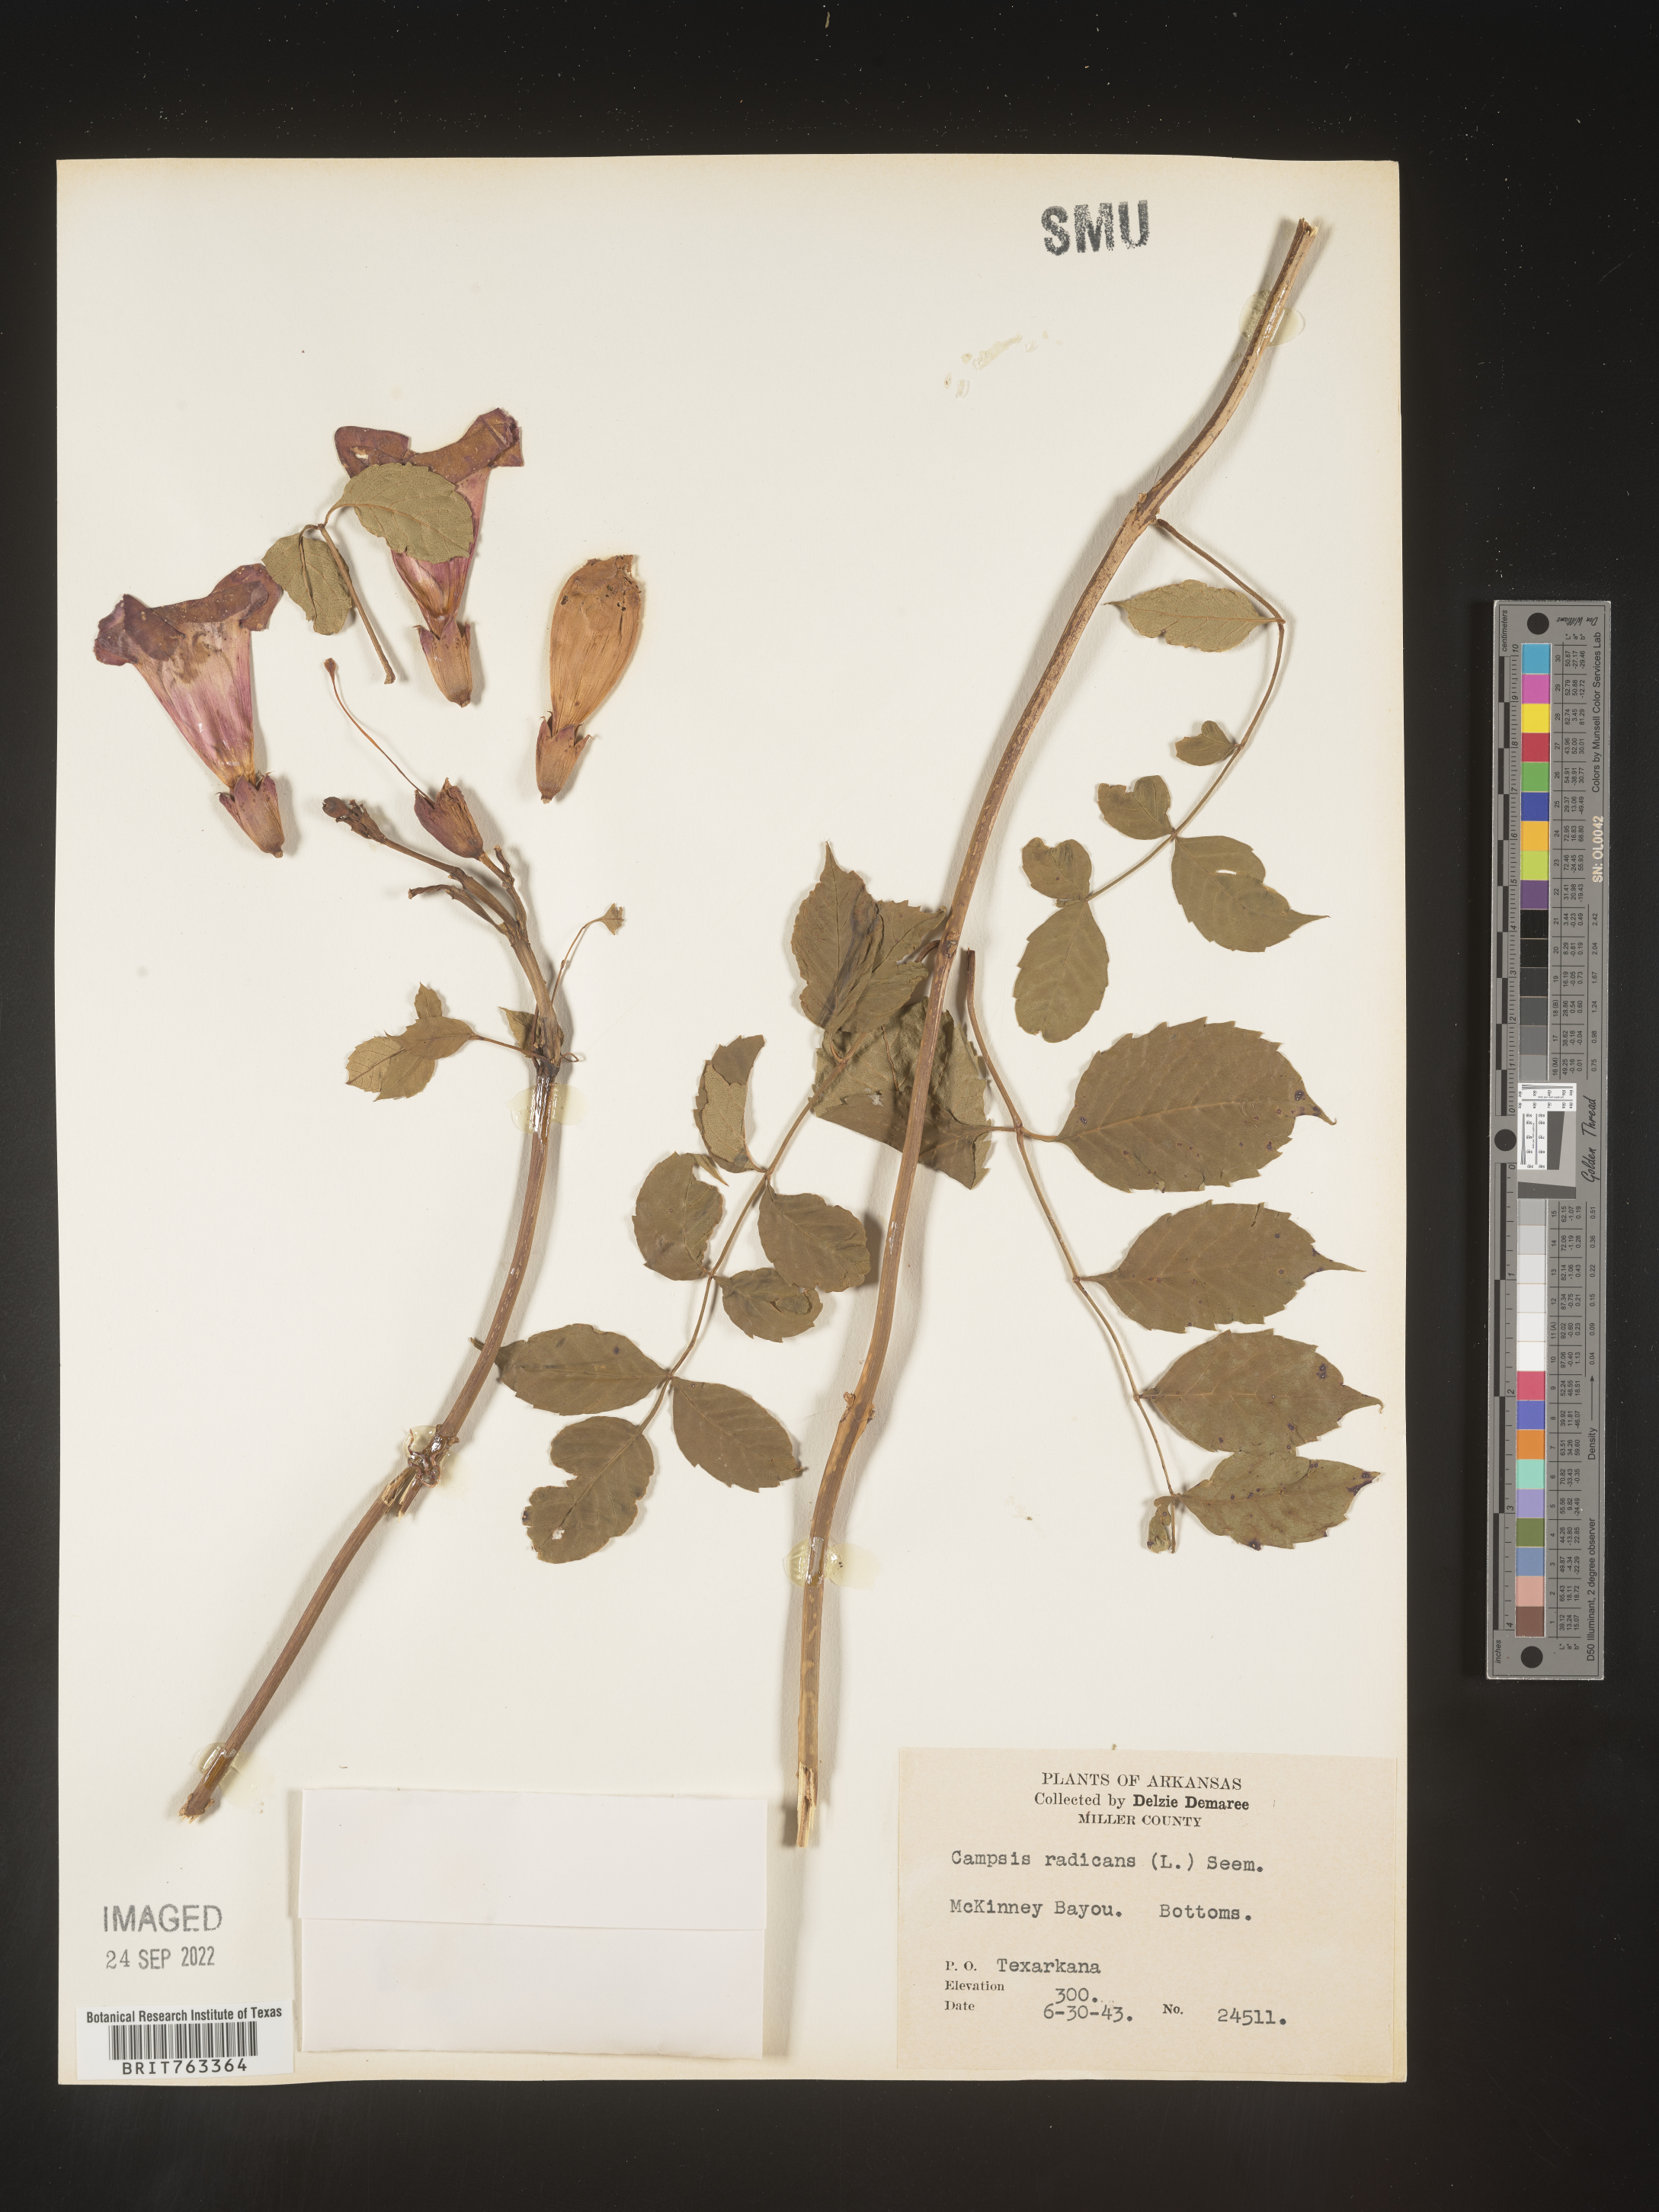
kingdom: Plantae
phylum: Tracheophyta
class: Magnoliopsida
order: Lamiales
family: Bignoniaceae
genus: Campsis
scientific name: Campsis radicans
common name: Trumpet-creeper
